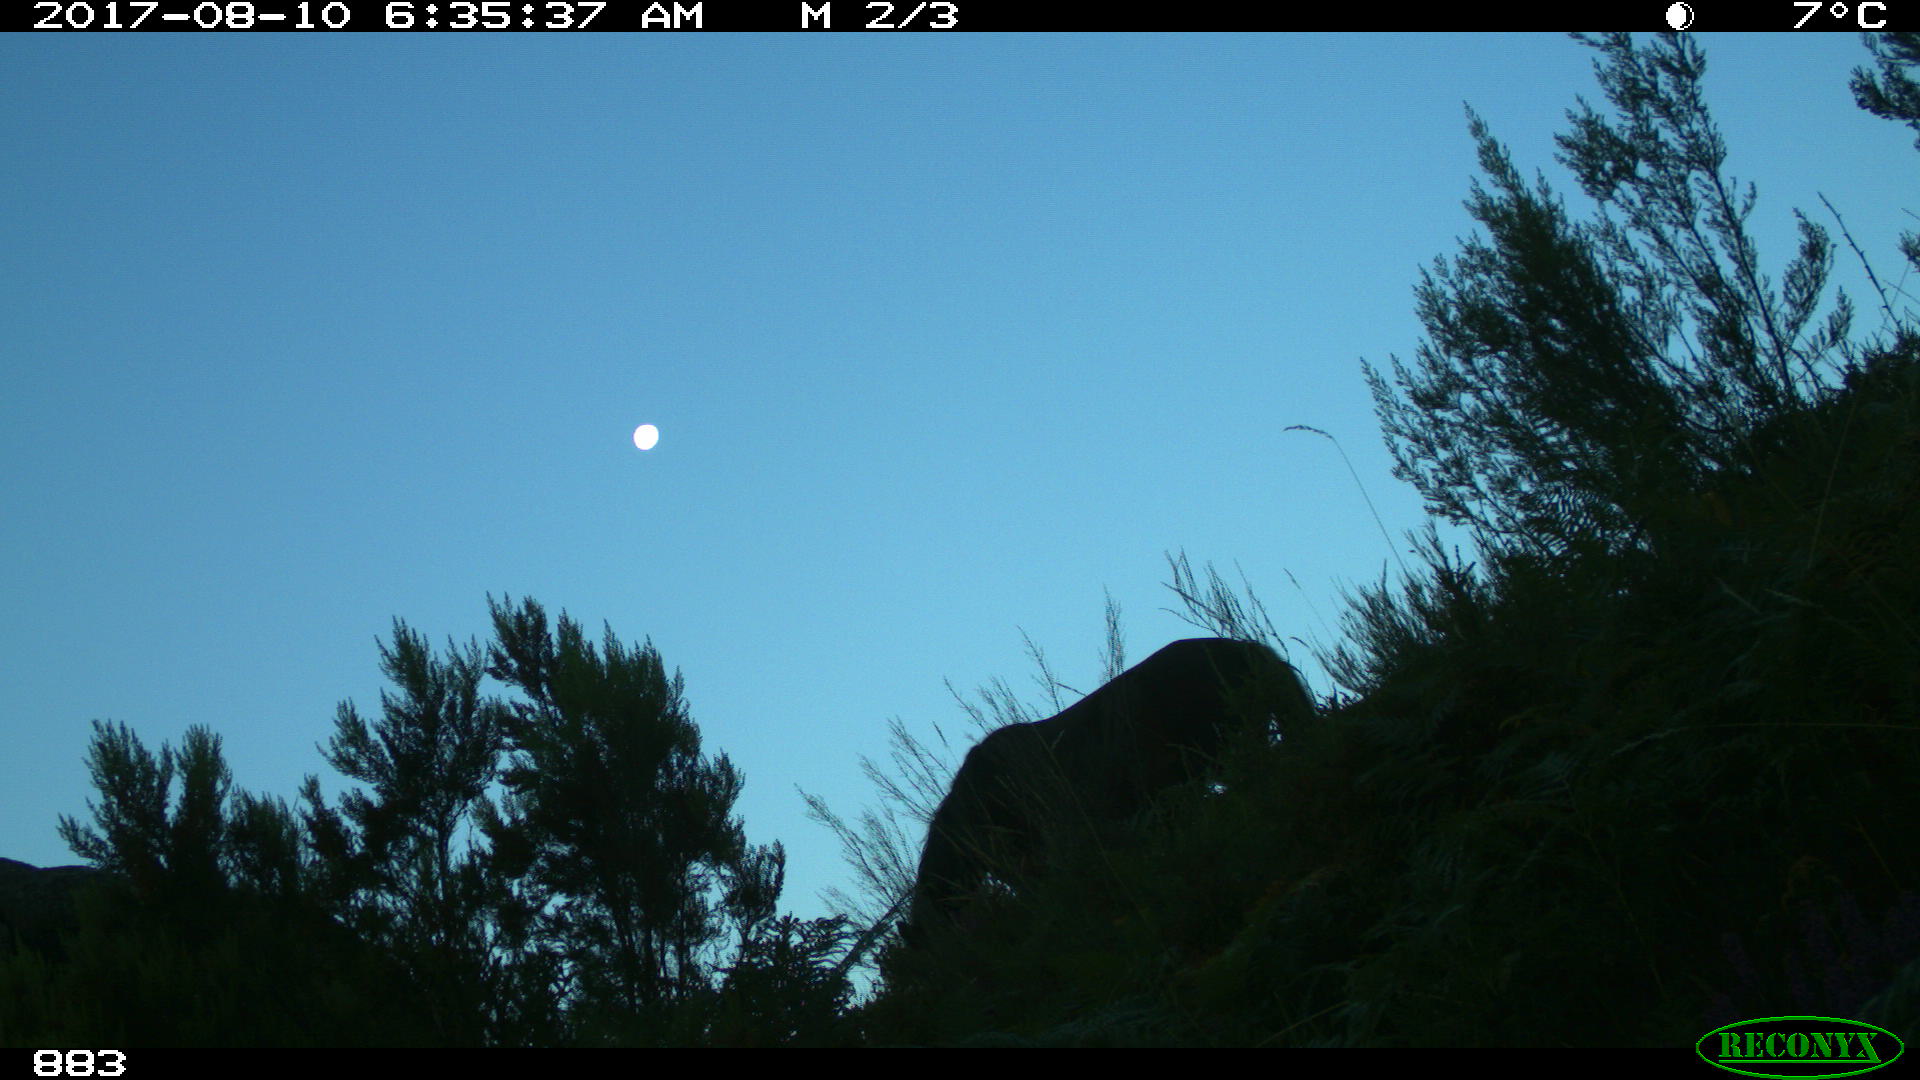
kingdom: Animalia
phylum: Chordata
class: Mammalia
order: Perissodactyla
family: Equidae
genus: Equus
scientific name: Equus caballus
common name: Horse
